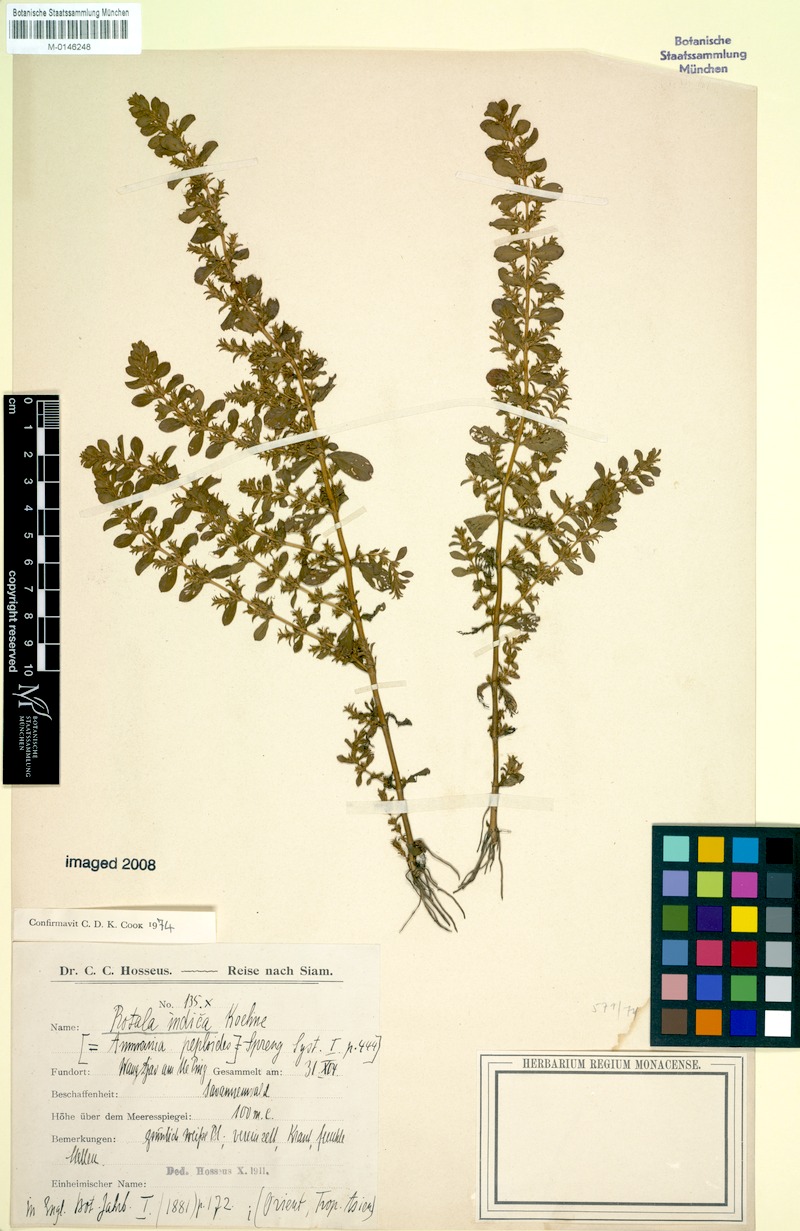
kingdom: Plantae
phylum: Tracheophyta
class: Magnoliopsida
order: Myrtales
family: Lythraceae
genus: Rotala
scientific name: Rotala indica
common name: Indian toothcup
